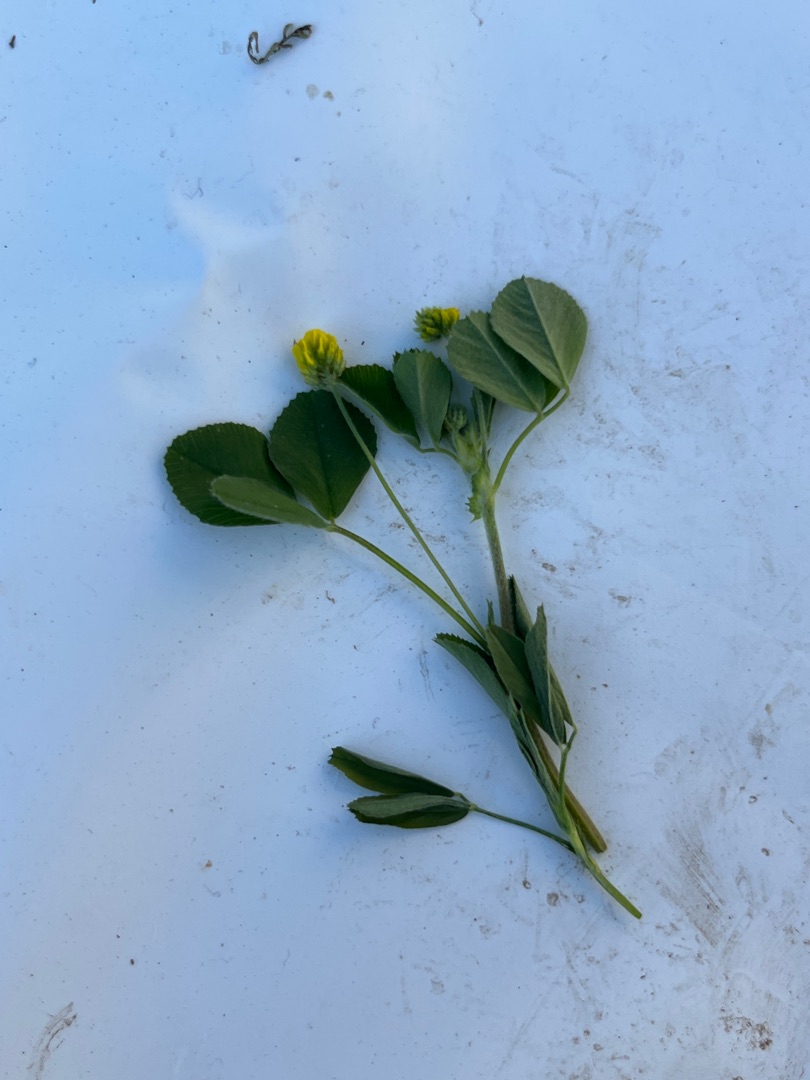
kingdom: Plantae
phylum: Tracheophyta
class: Magnoliopsida
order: Fabales
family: Fabaceae
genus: Medicago
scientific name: Medicago lupulina
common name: Humle-sneglebælg
